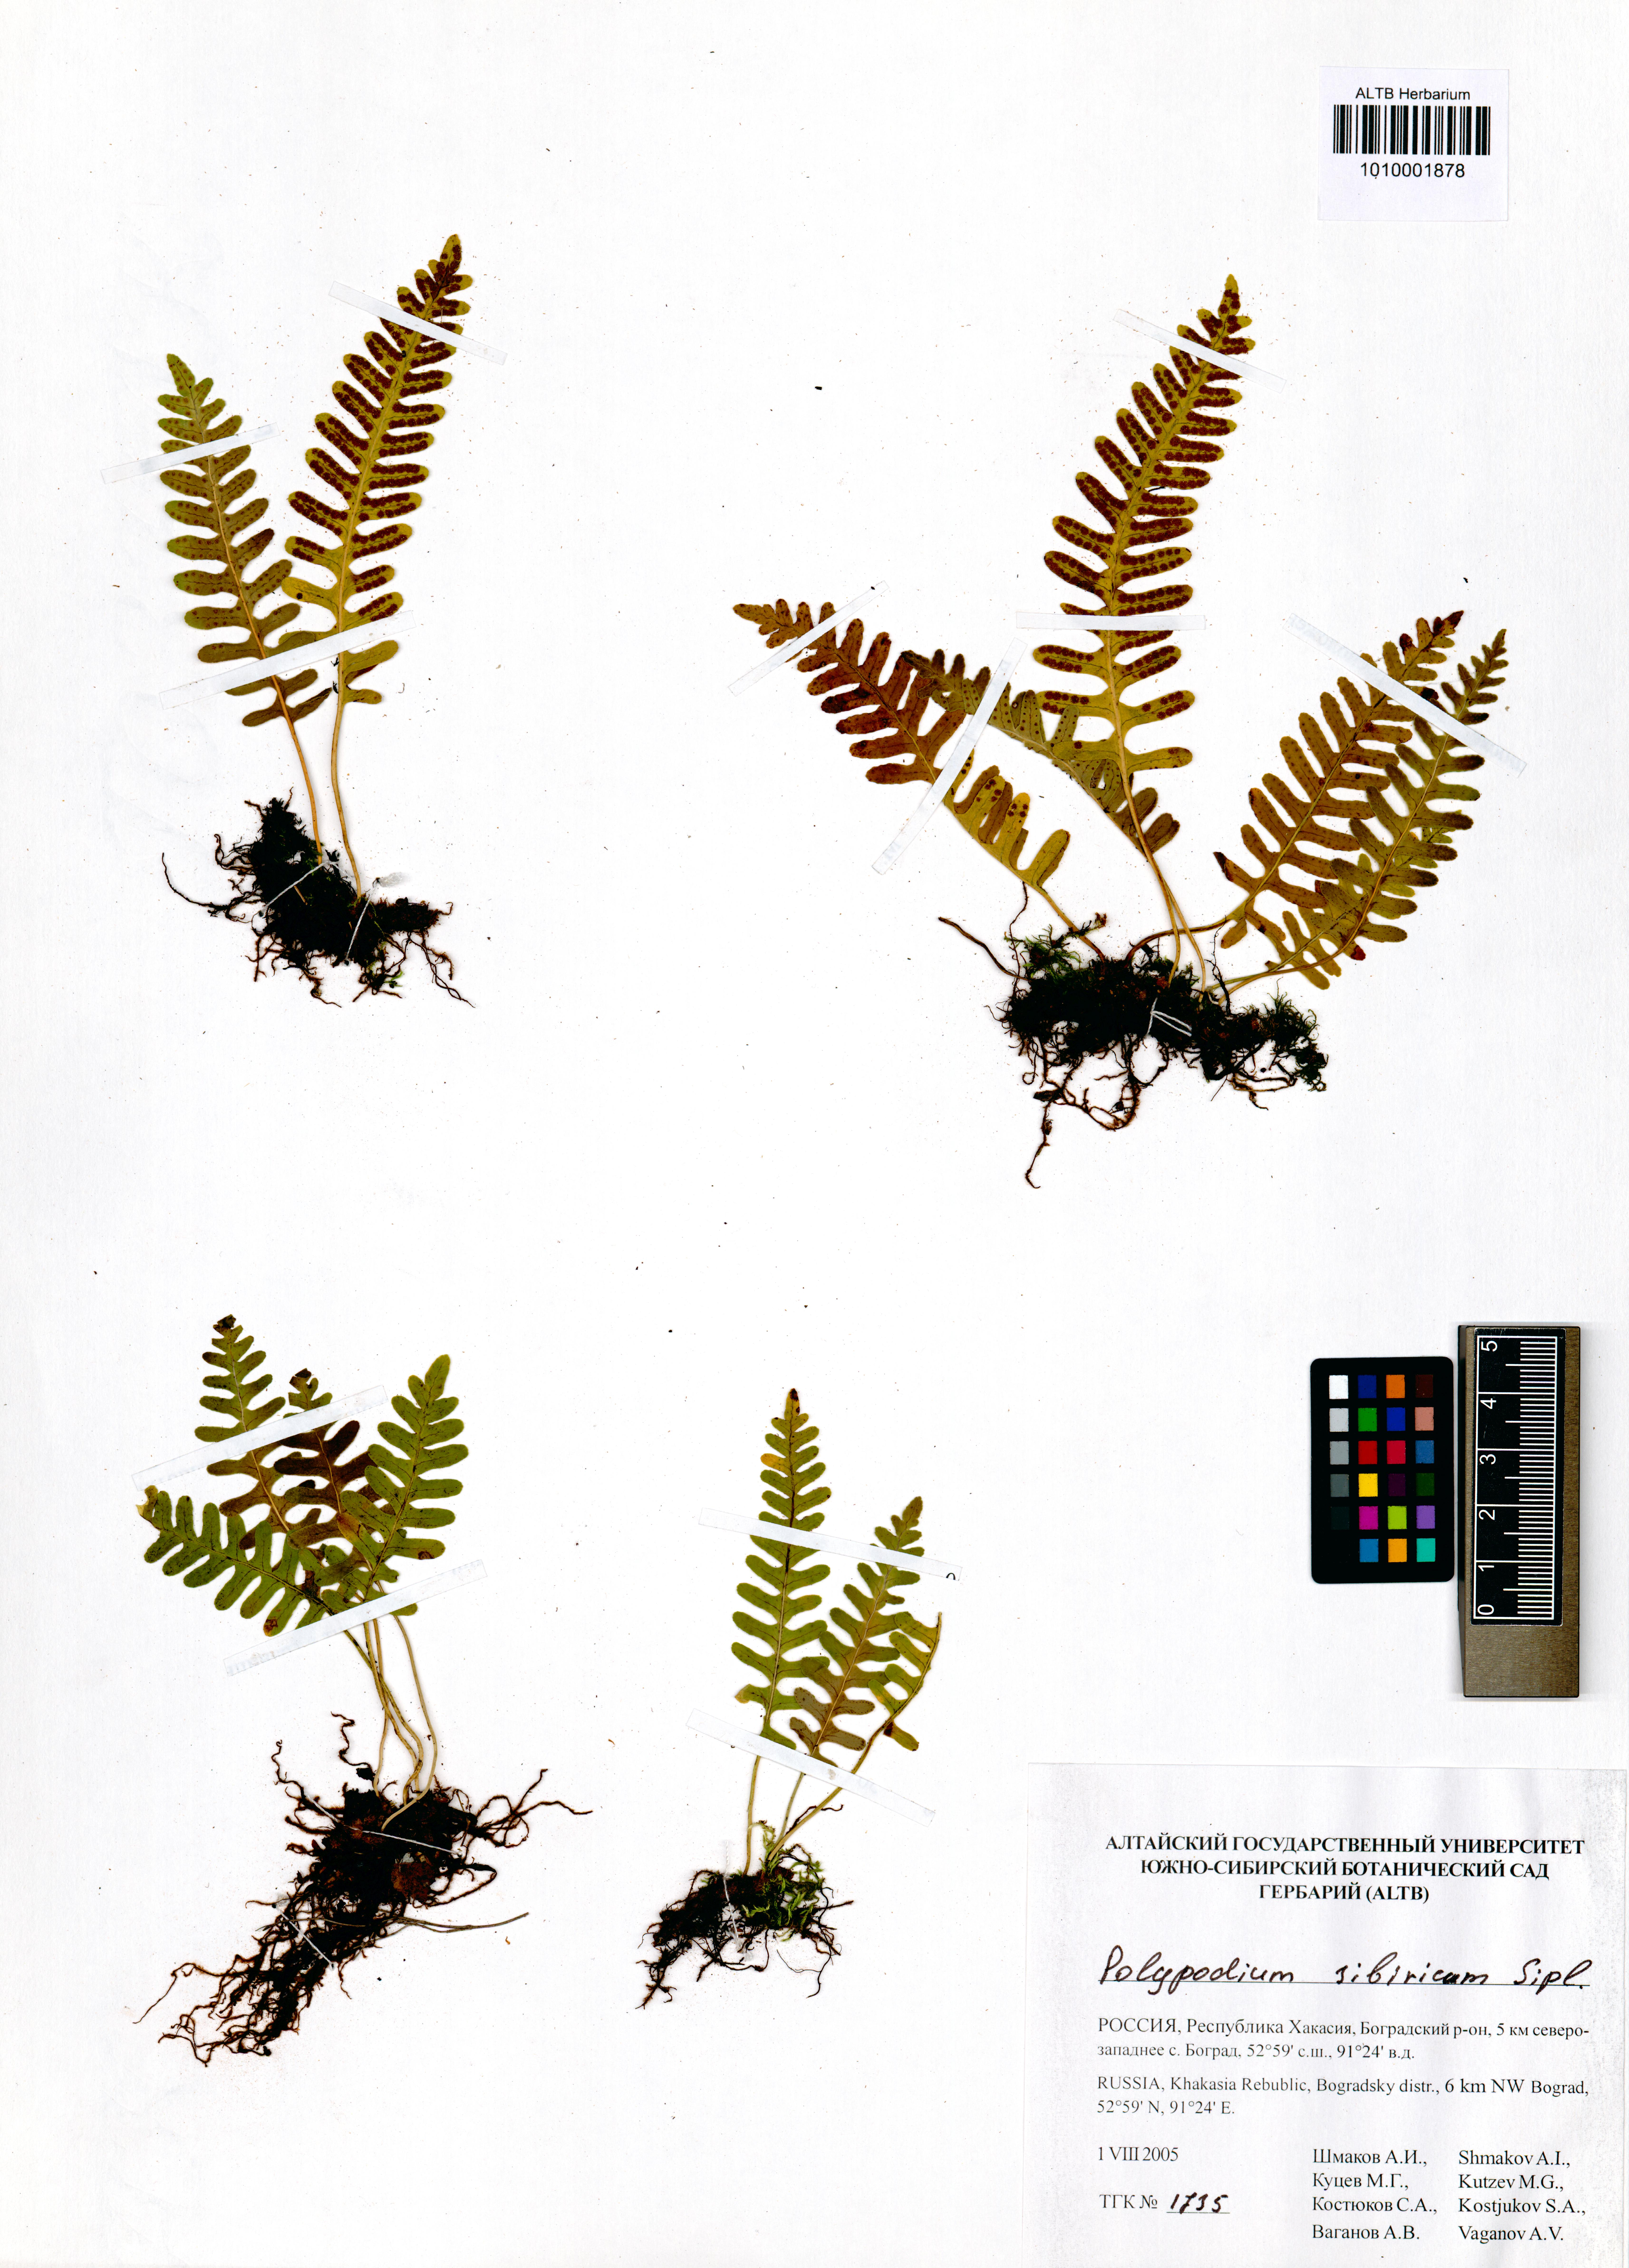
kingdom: Plantae
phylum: Tracheophyta
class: Polypodiopsida
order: Polypodiales
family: Polypodiaceae
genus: Polypodium
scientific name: Polypodium sibiricum
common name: Siberian polypody
